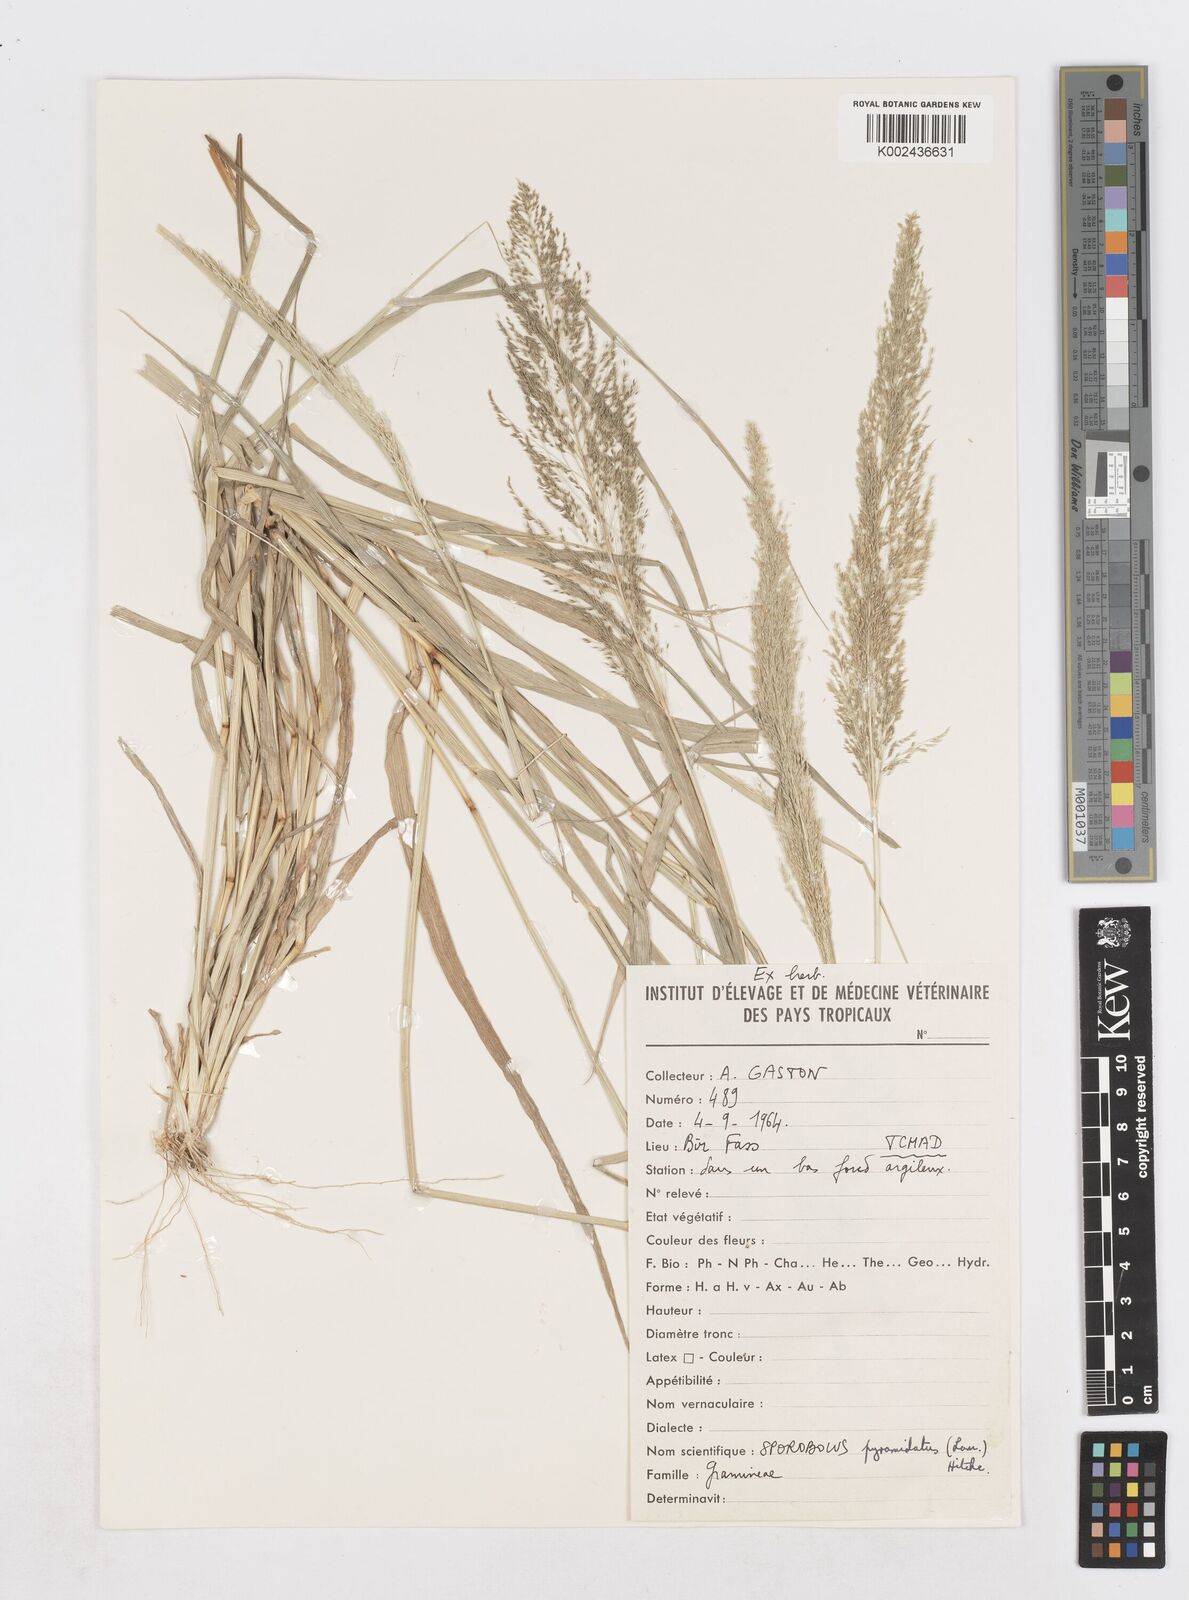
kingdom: Plantae
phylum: Tracheophyta
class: Liliopsida
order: Poales
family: Poaceae
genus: Sporobolus
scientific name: Sporobolus cordofanus
